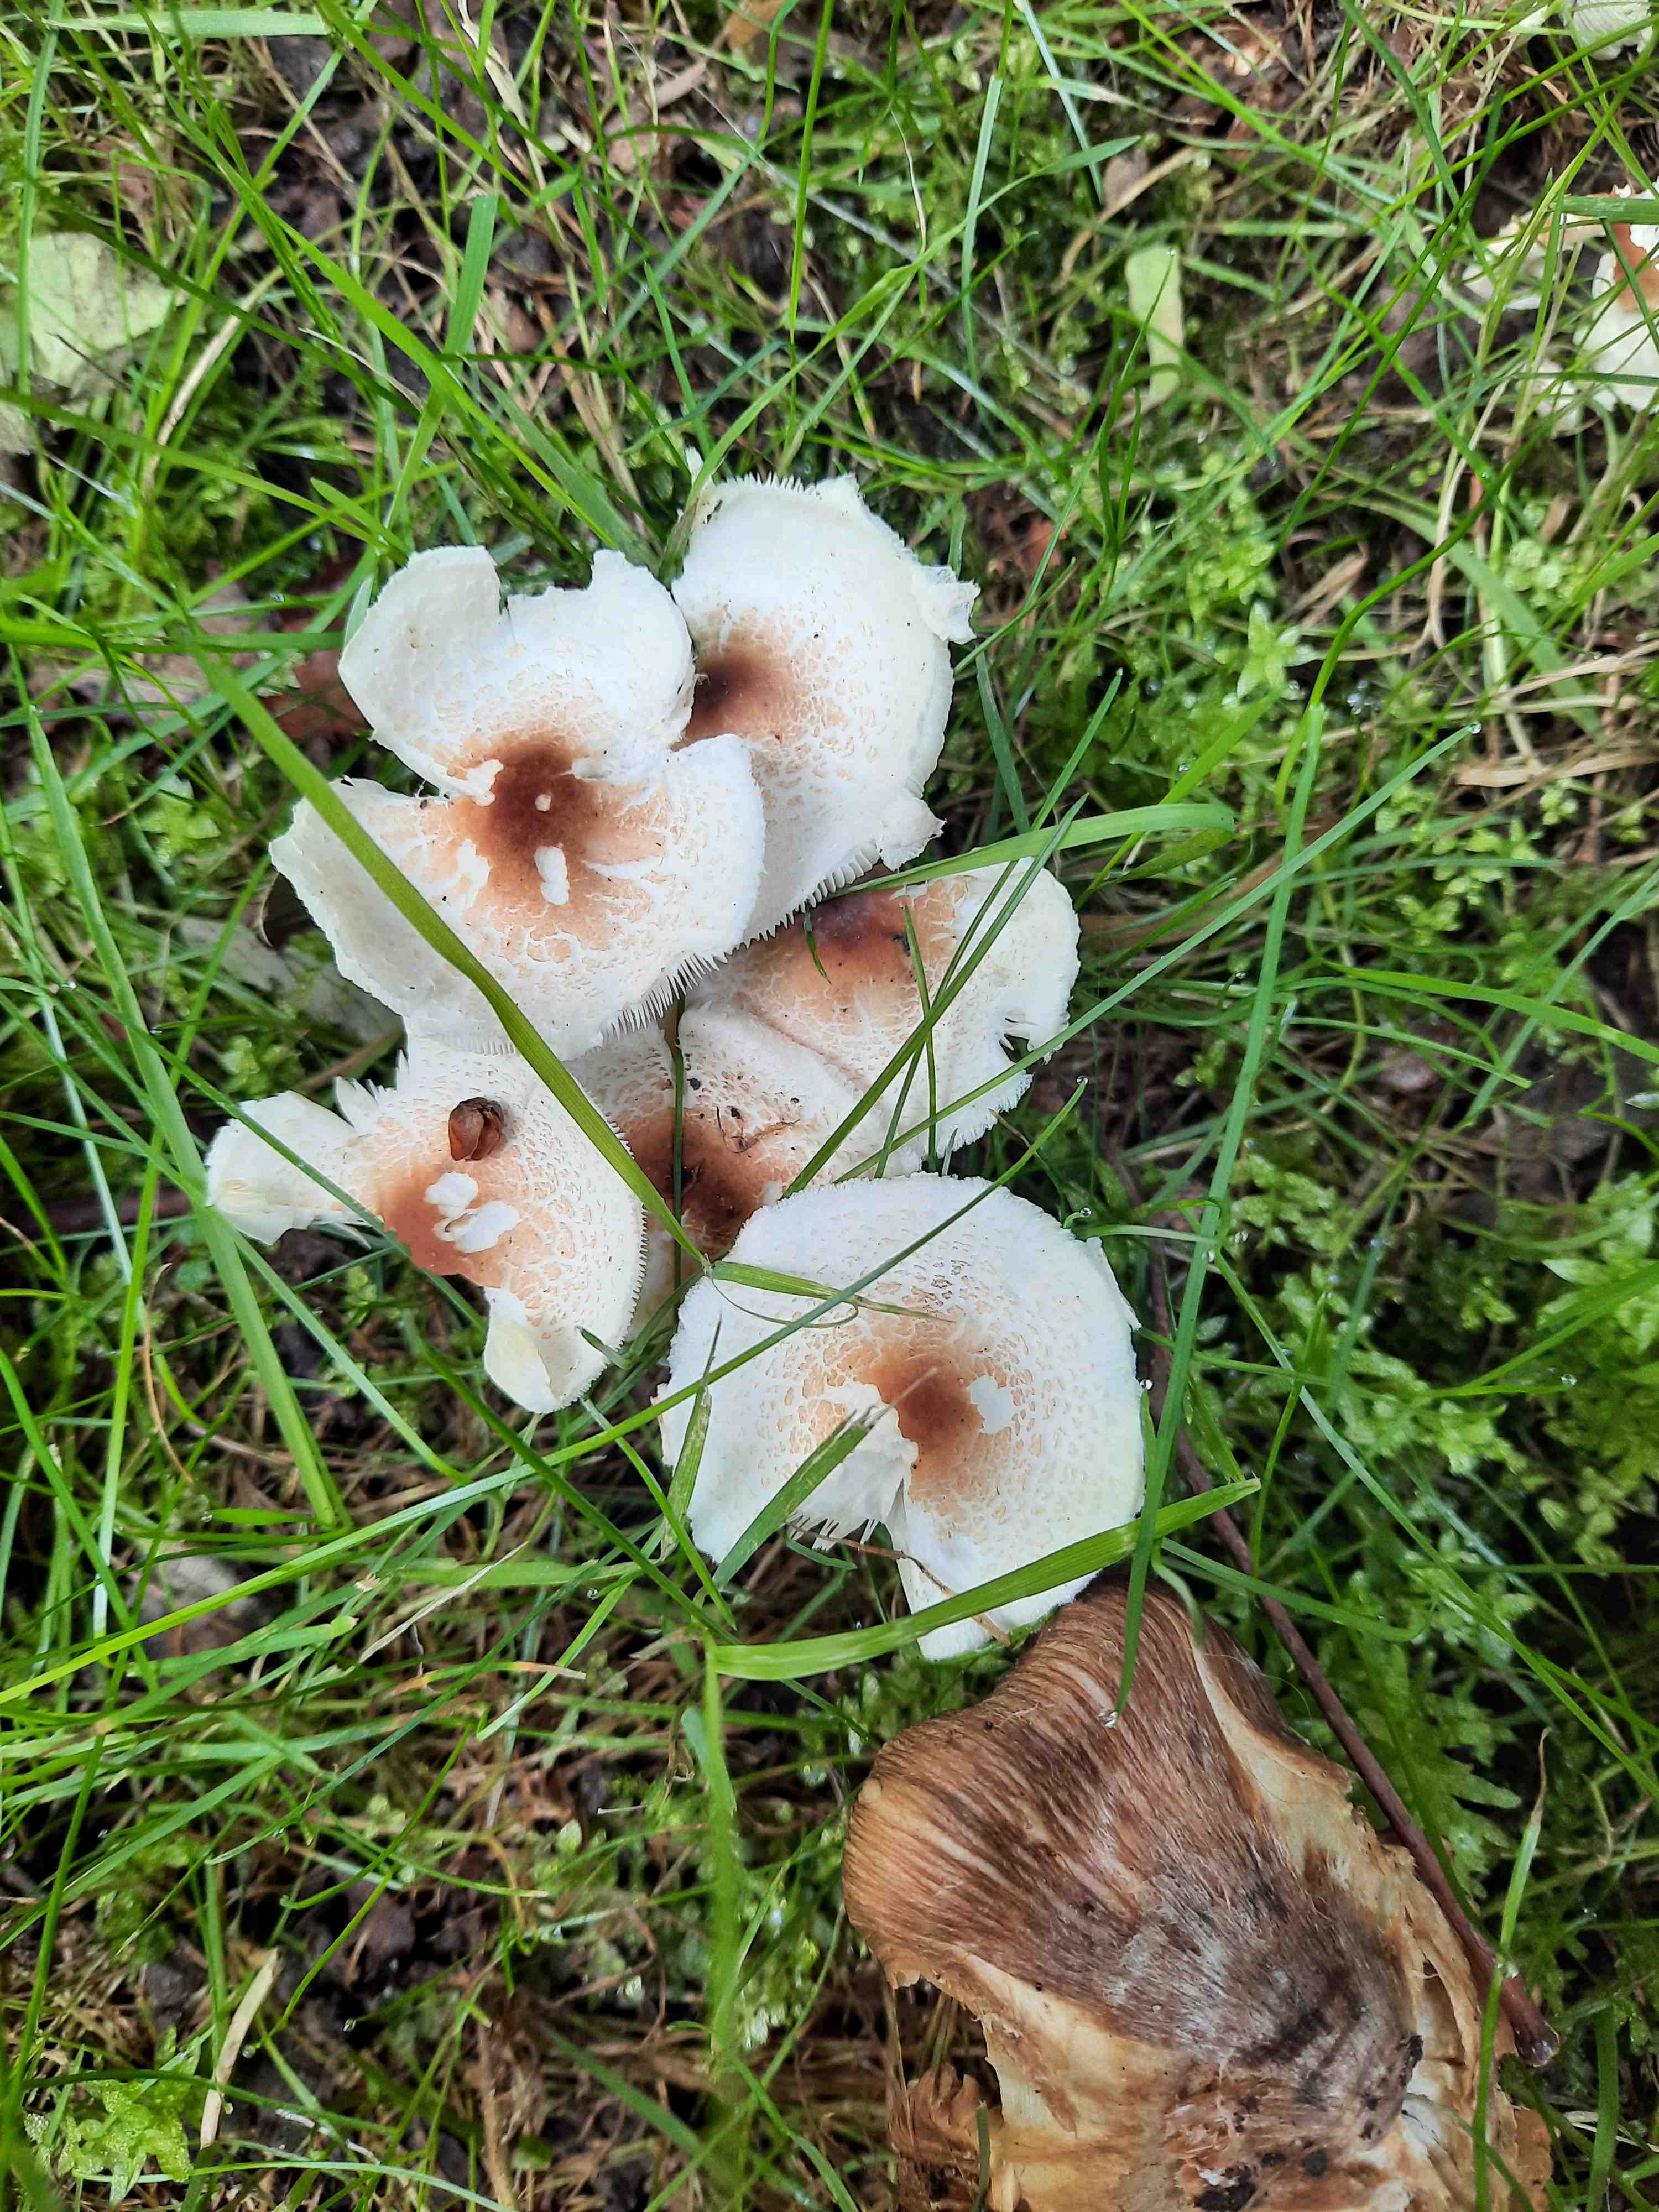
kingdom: Fungi
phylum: Basidiomycota
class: Agaricomycetes
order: Agaricales
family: Agaricaceae
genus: Lepiota
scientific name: Lepiota cristata
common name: stinkende parasolhat
